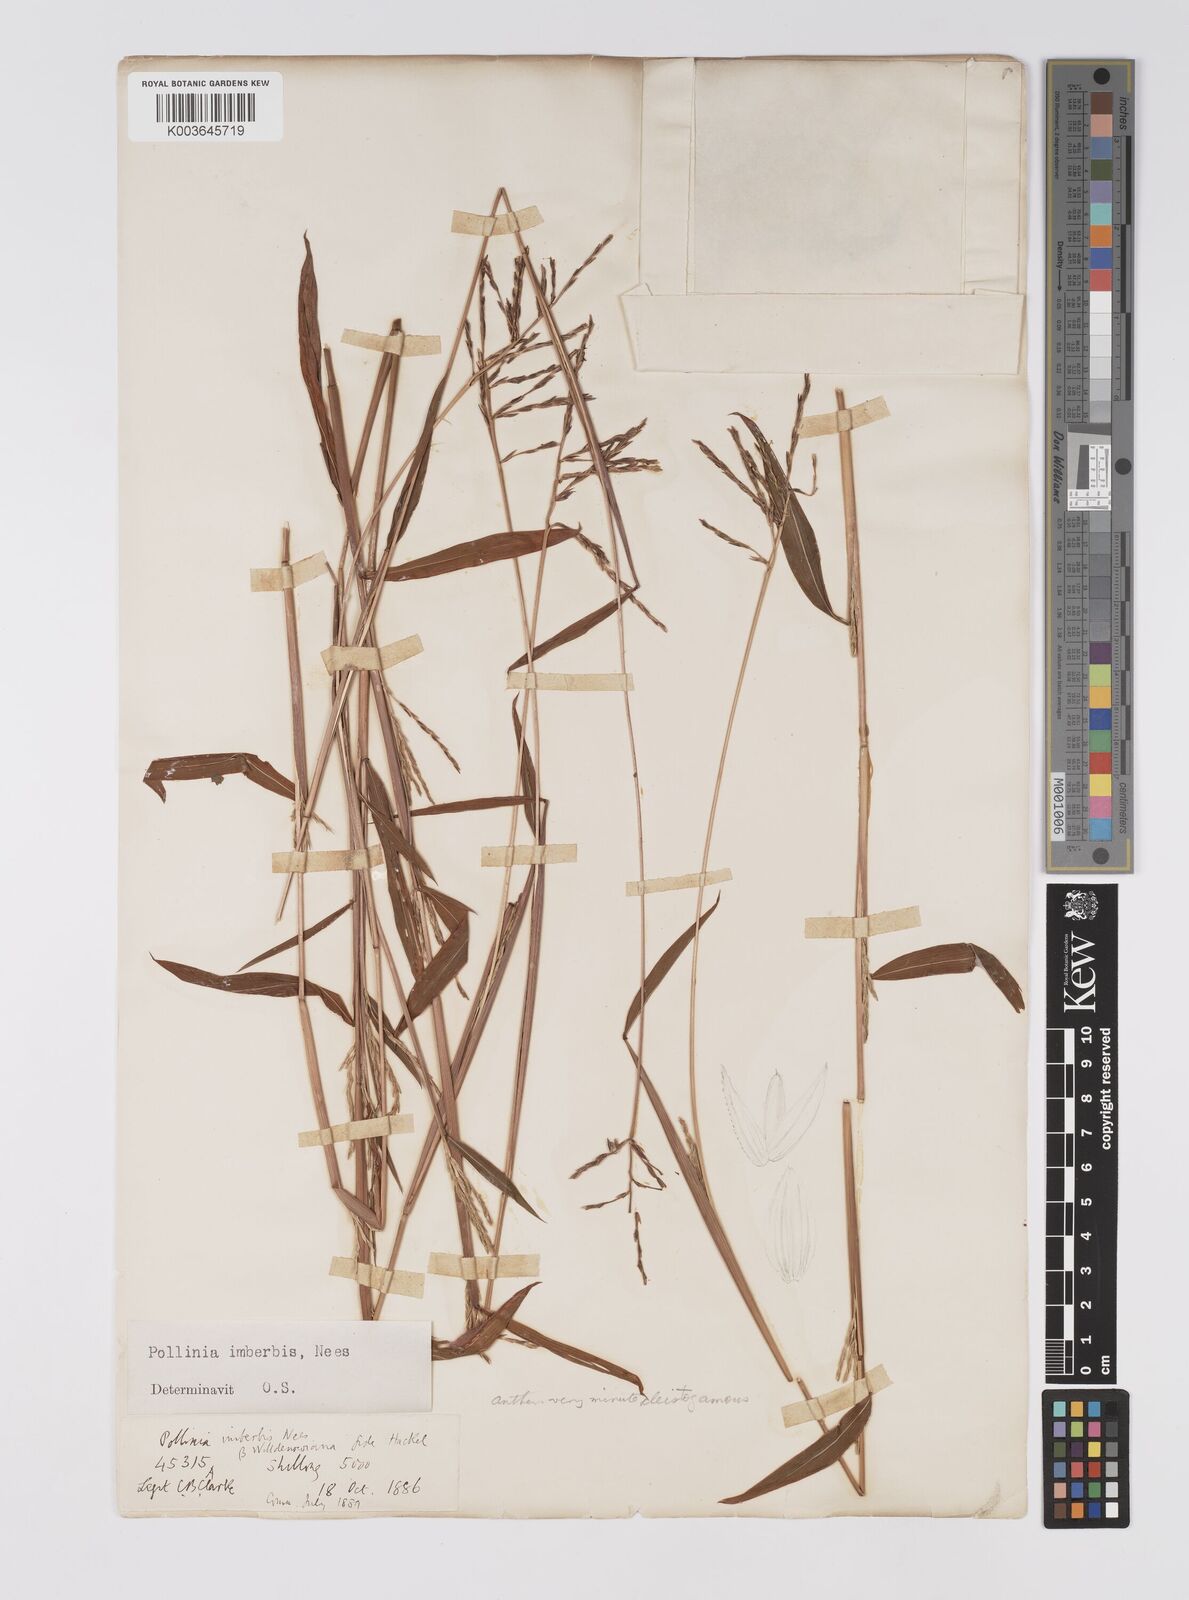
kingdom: Plantae
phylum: Tracheophyta
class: Liliopsida
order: Poales
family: Poaceae
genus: Microstegium
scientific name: Microstegium vimineum
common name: Japanese stiltgrass
